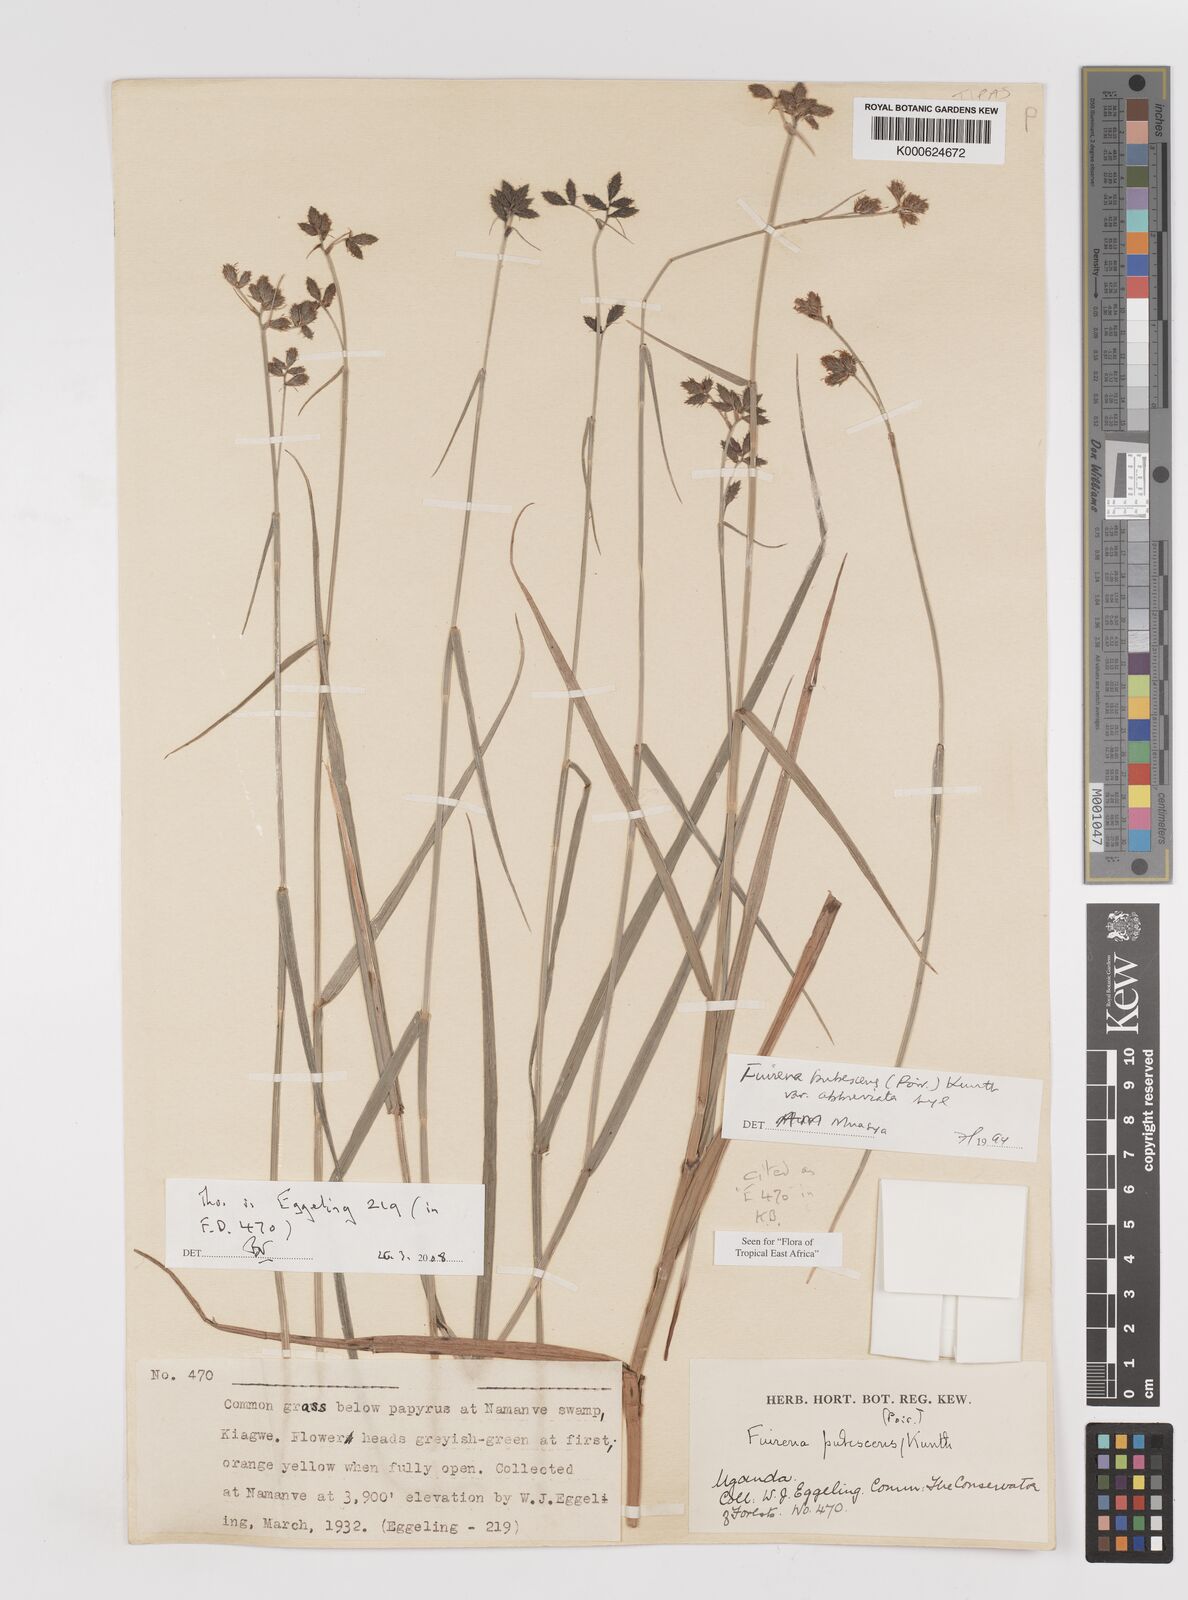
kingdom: Plantae
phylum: Tracheophyta
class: Liliopsida
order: Poales
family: Cyperaceae
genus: Fuirena
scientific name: Fuirena pubescens
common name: Hairy sedge
